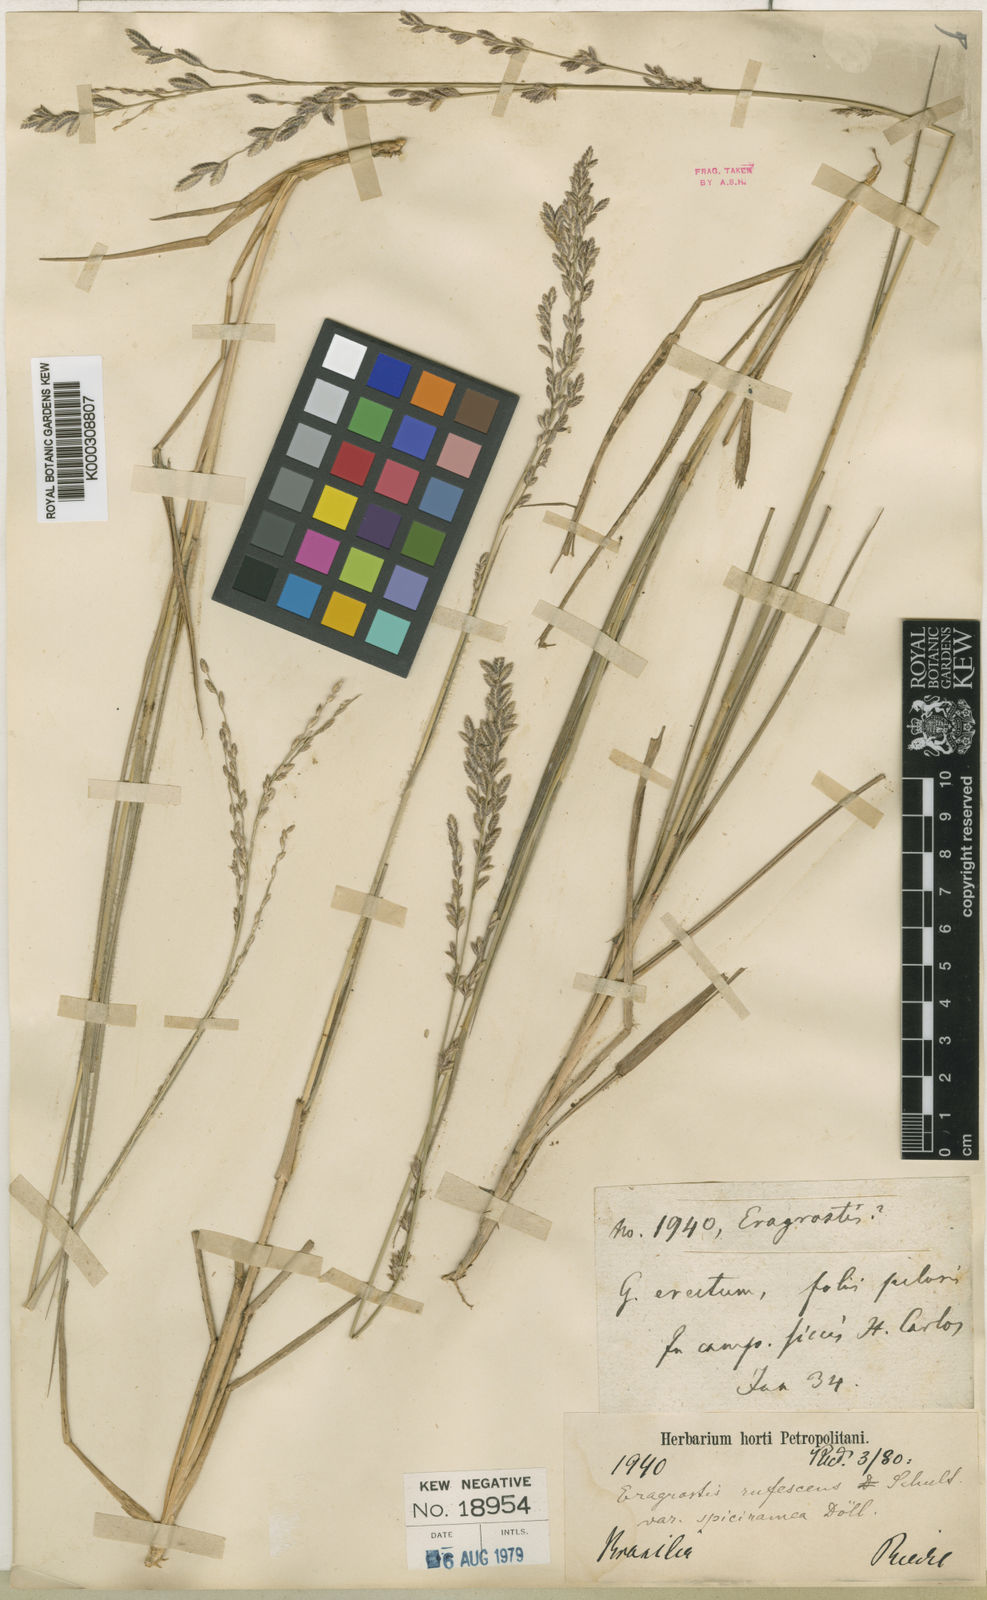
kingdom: Plantae
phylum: Tracheophyta
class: Liliopsida
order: Poales
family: Poaceae
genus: Eragrostis
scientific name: Eragrostis solida
